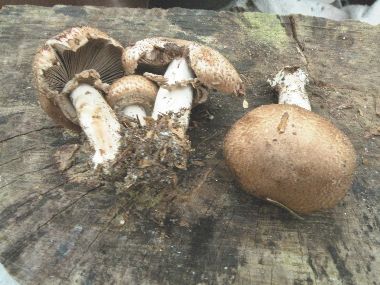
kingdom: Fungi
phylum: Basidiomycota
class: Agaricomycetes
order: Agaricales
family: Agaricaceae
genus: Agaricus
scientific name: Agaricus sylvaticus
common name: lille blod-champignon
